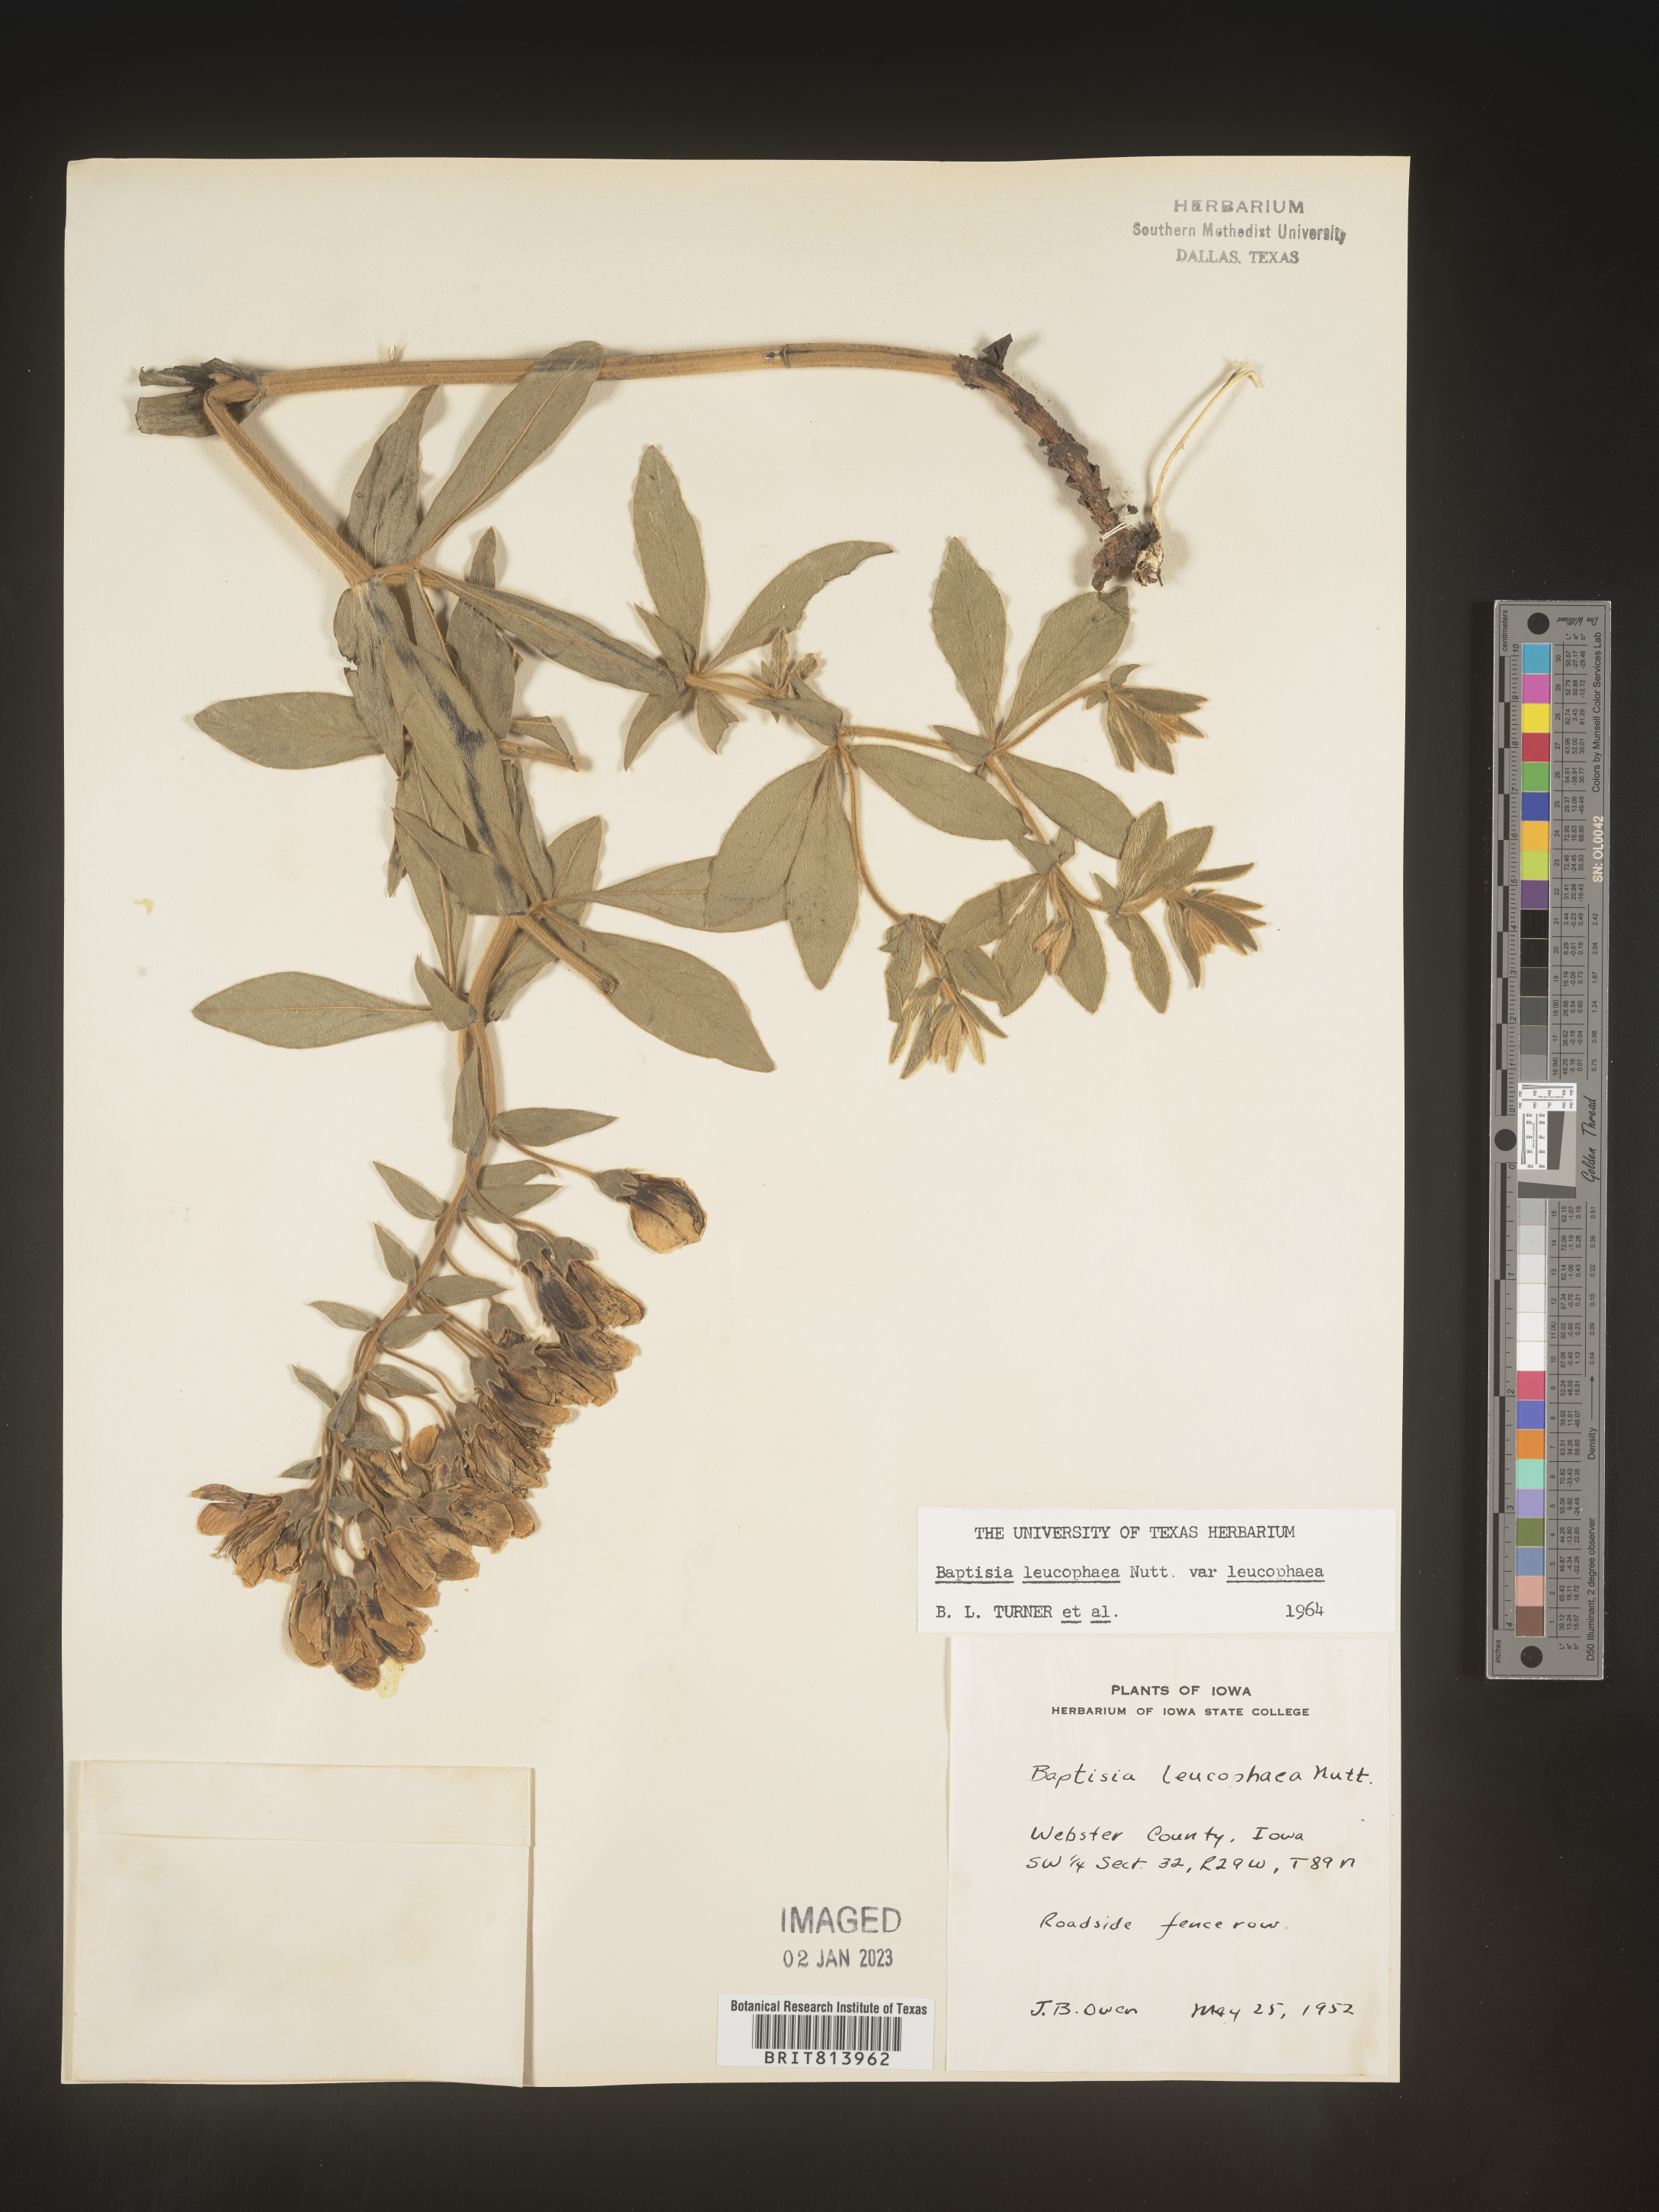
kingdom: Plantae
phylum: Tracheophyta
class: Magnoliopsida
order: Fabales
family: Fabaceae
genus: Baptisia
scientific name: Baptisia bracteata
